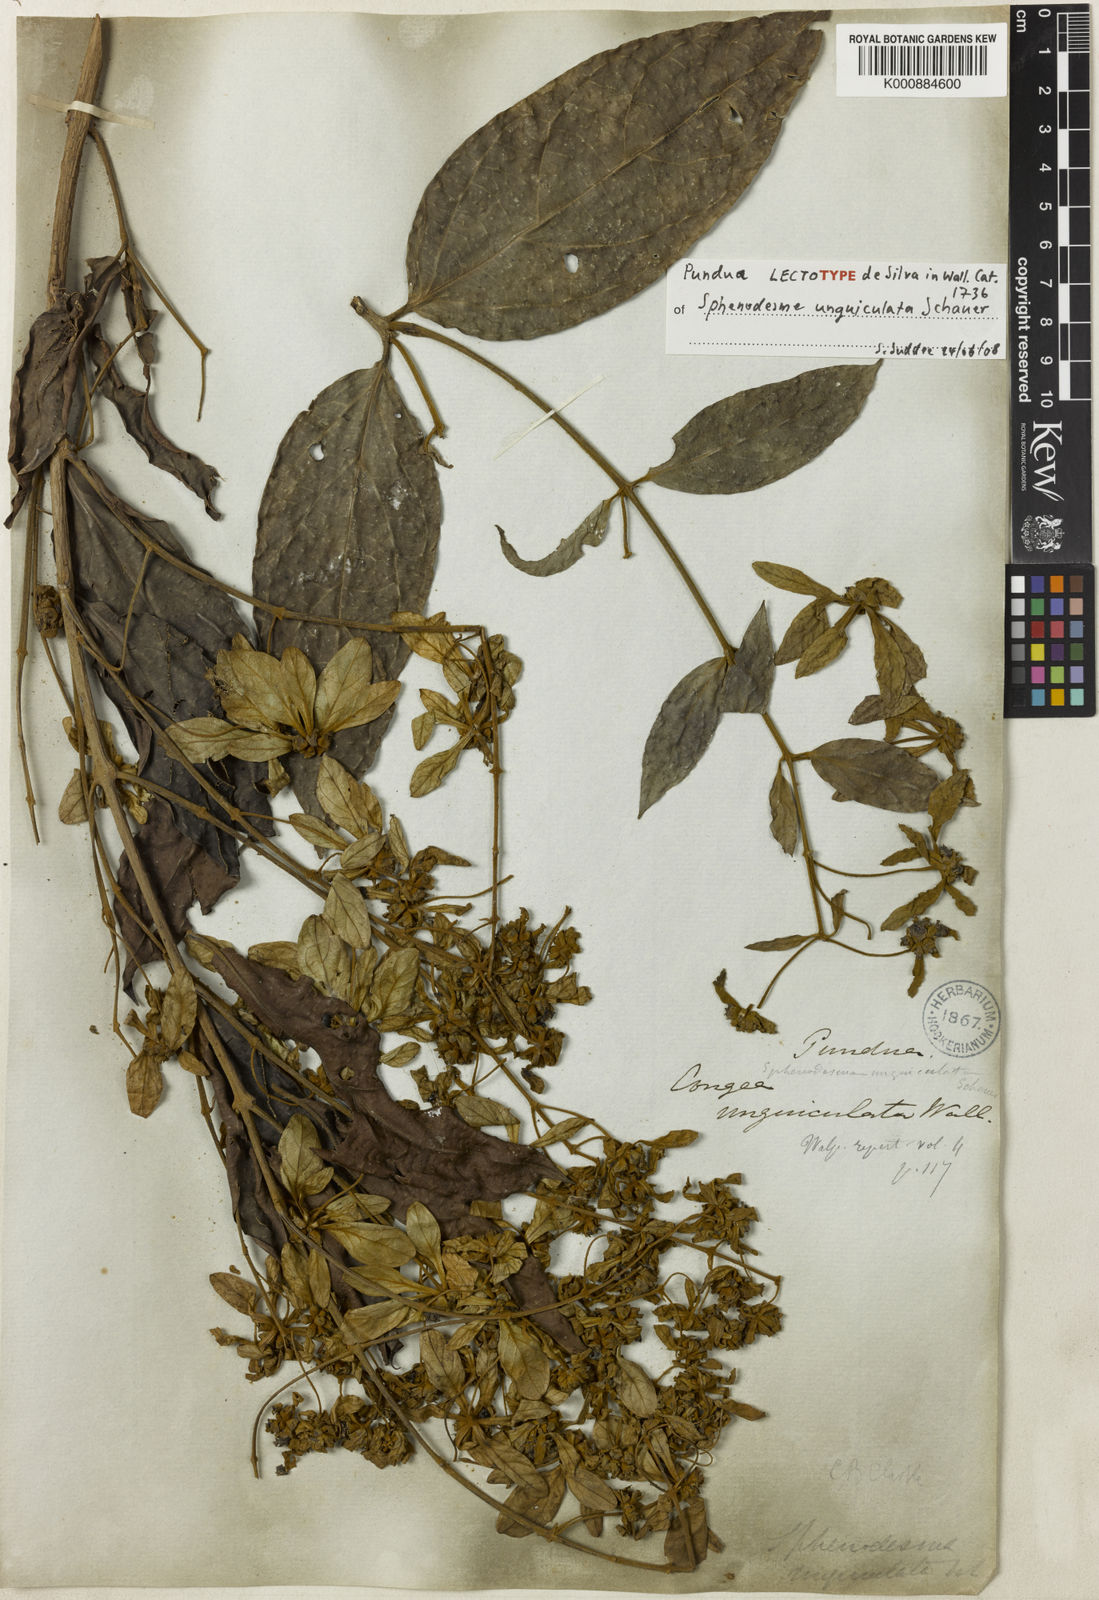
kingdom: Plantae
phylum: Tracheophyta
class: Magnoliopsida
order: Lamiales
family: Lamiaceae
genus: Sphenodesme
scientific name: Sphenodesme involucrata
